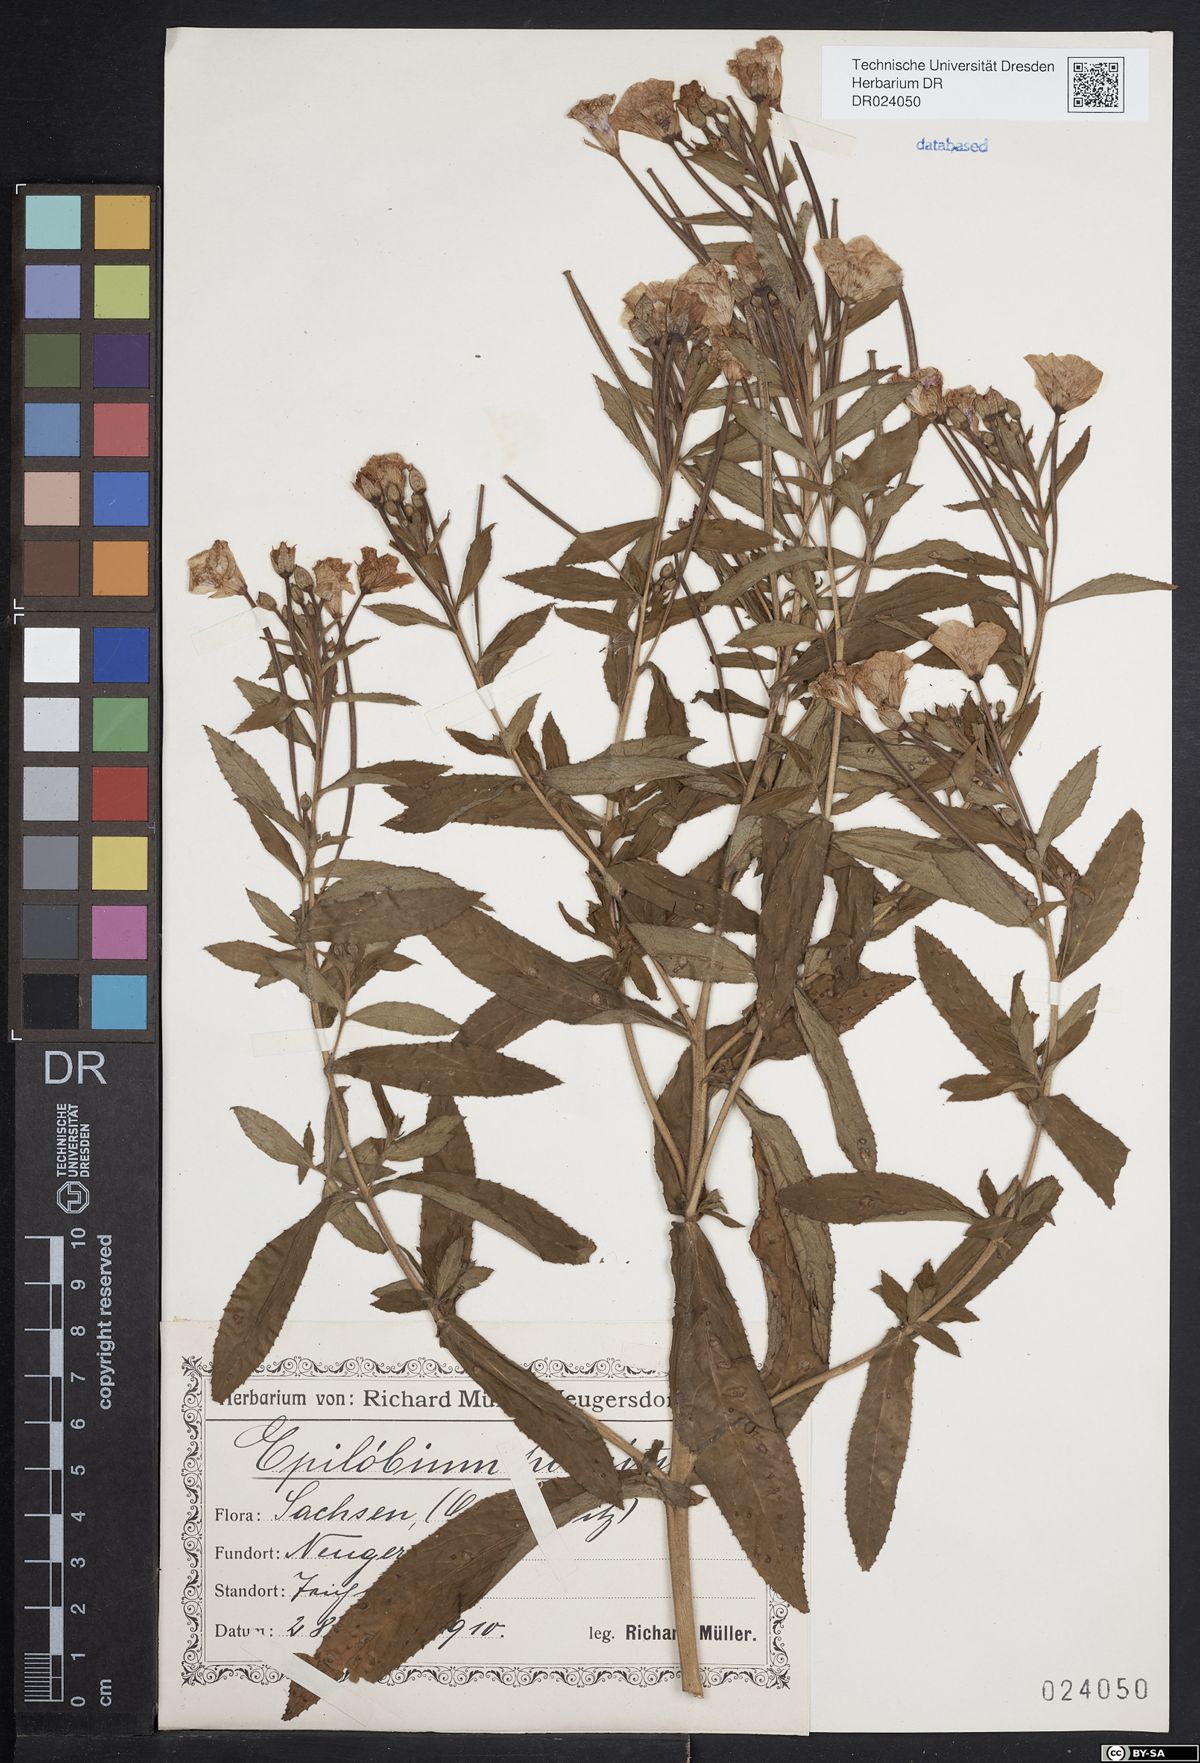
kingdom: Plantae
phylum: Tracheophyta
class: Magnoliopsida
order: Myrtales
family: Onagraceae
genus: Epilobium
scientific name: Epilobium hirsutum
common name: Great willowherb
